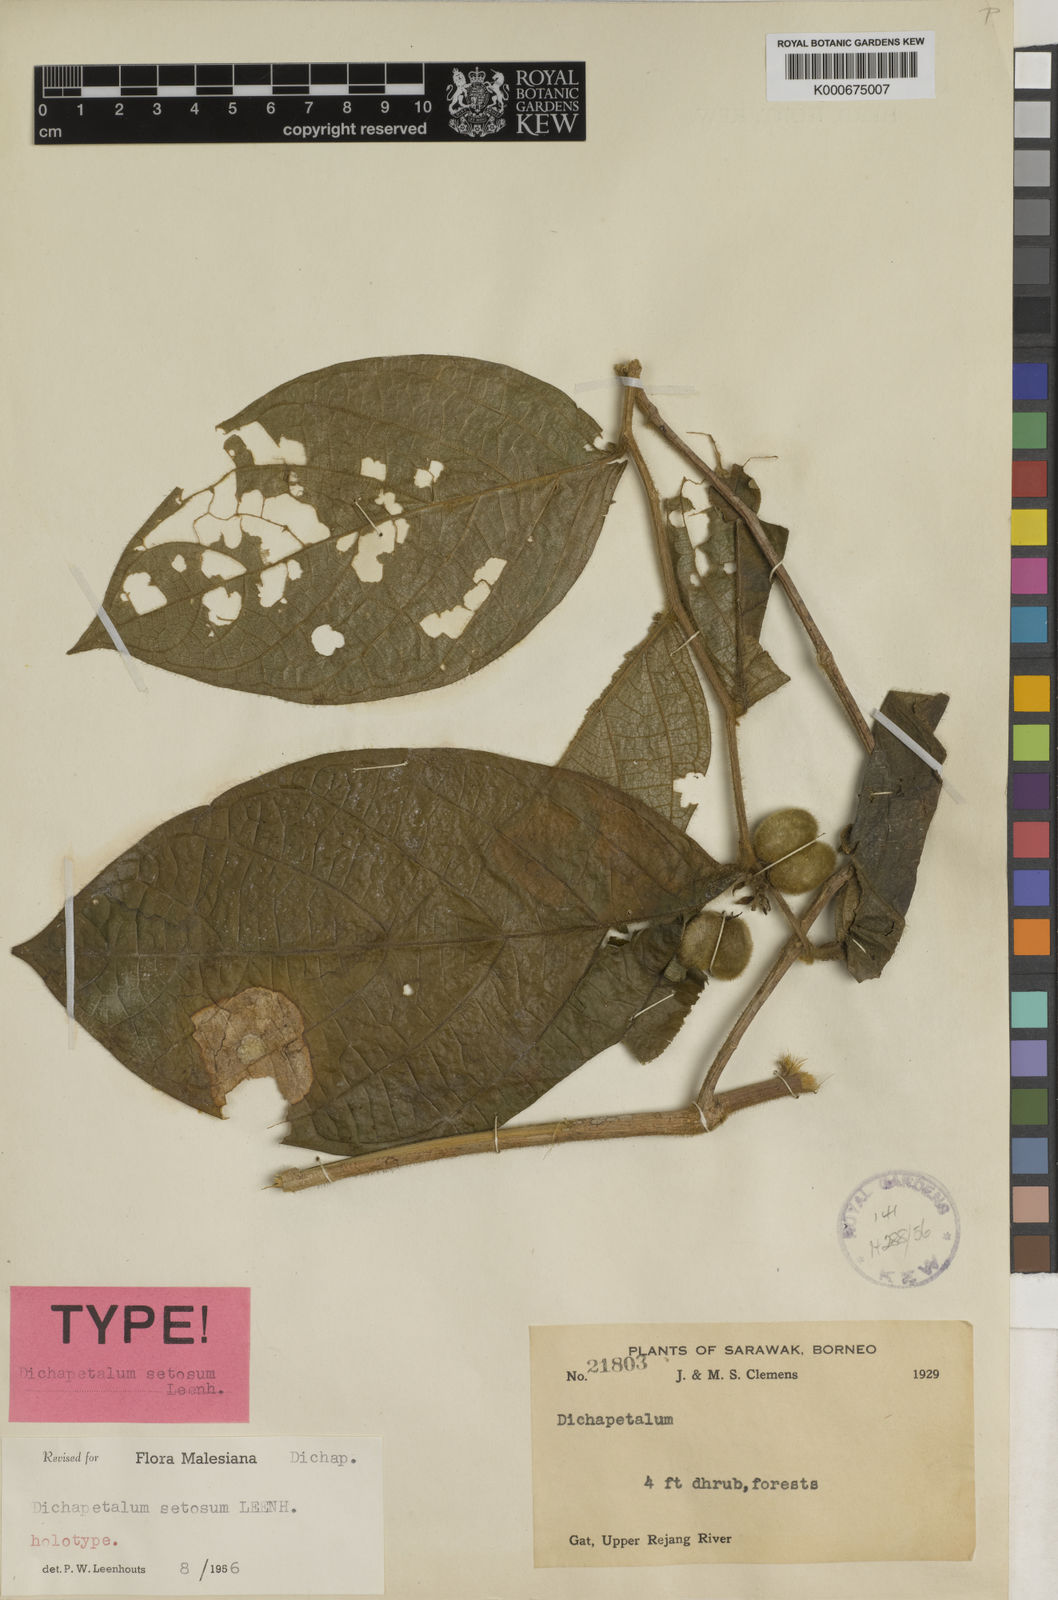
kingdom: Plantae
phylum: Tracheophyta
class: Magnoliopsida
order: Malpighiales
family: Dichapetalaceae
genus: Dichapetalum
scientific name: Dichapetalum setosum
